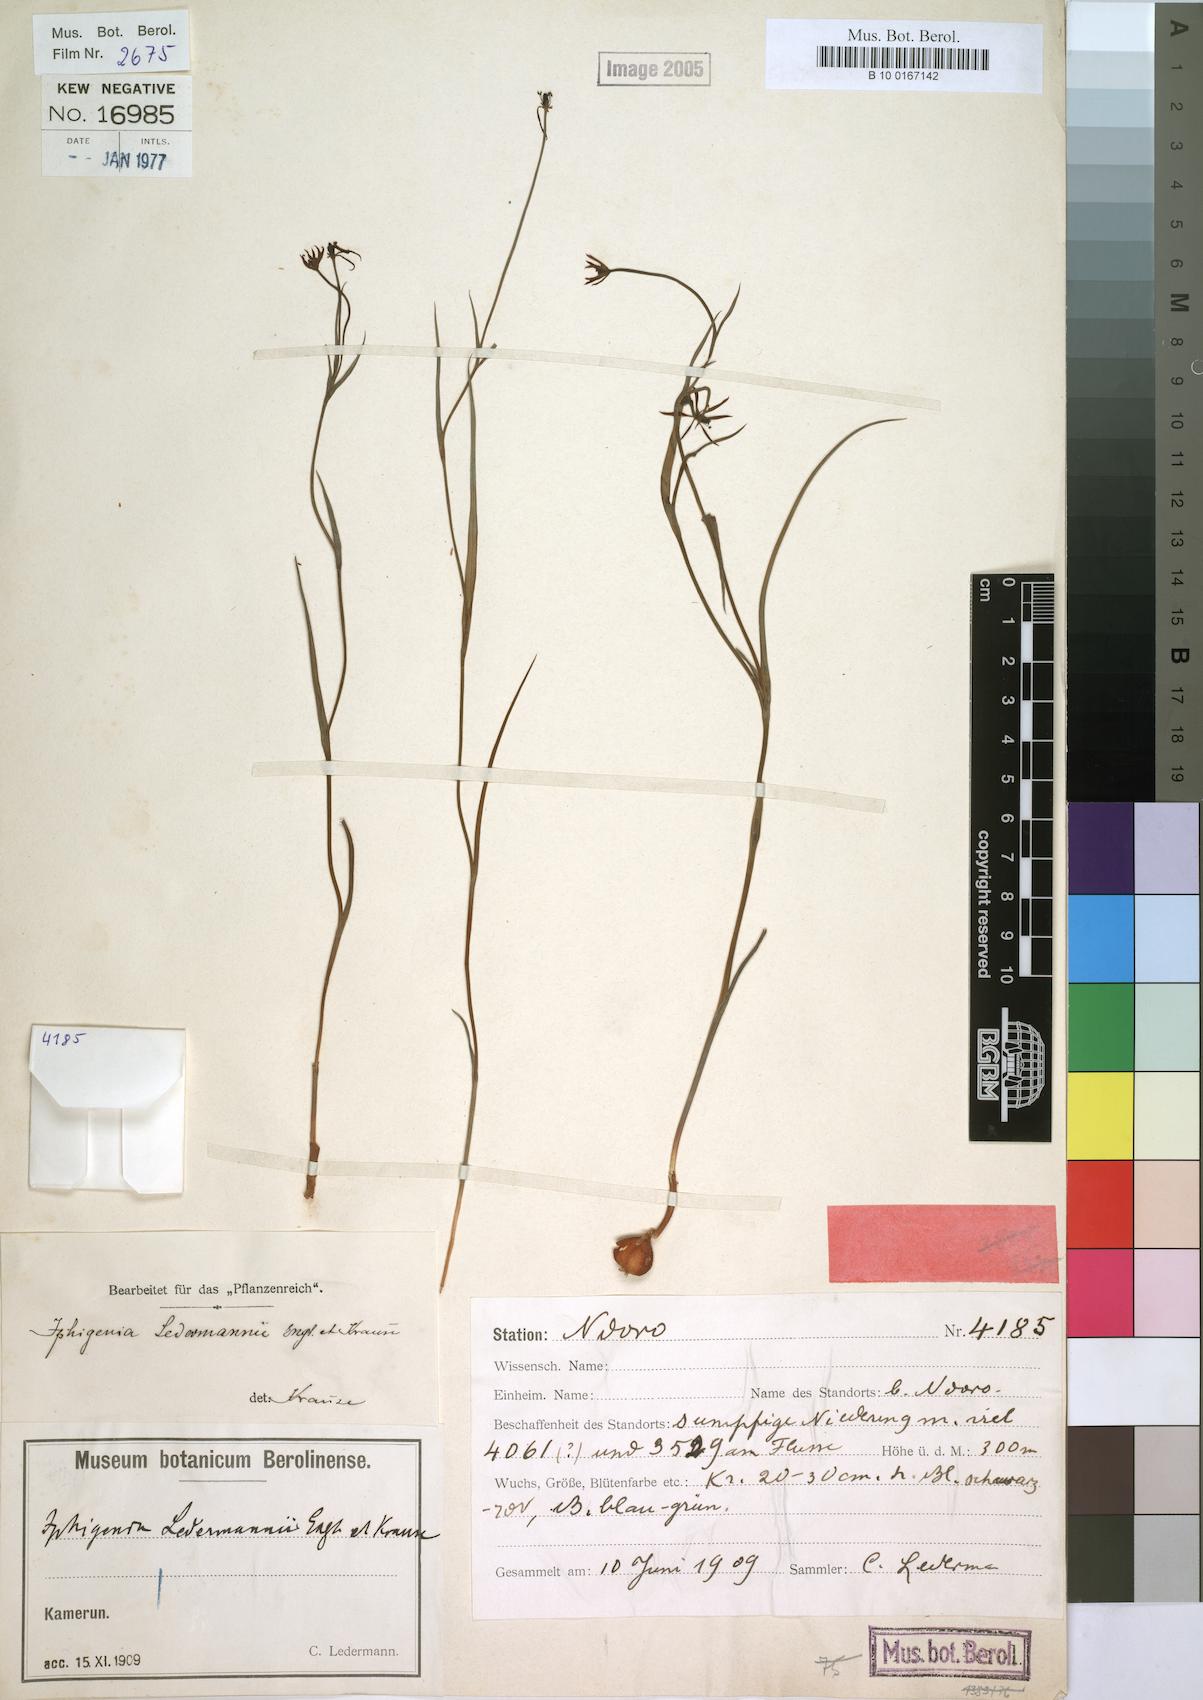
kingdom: Plantae
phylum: Tracheophyta
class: Liliopsida
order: Liliales
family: Colchicaceae
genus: Iphigenia
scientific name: Iphigenia pauciflora
